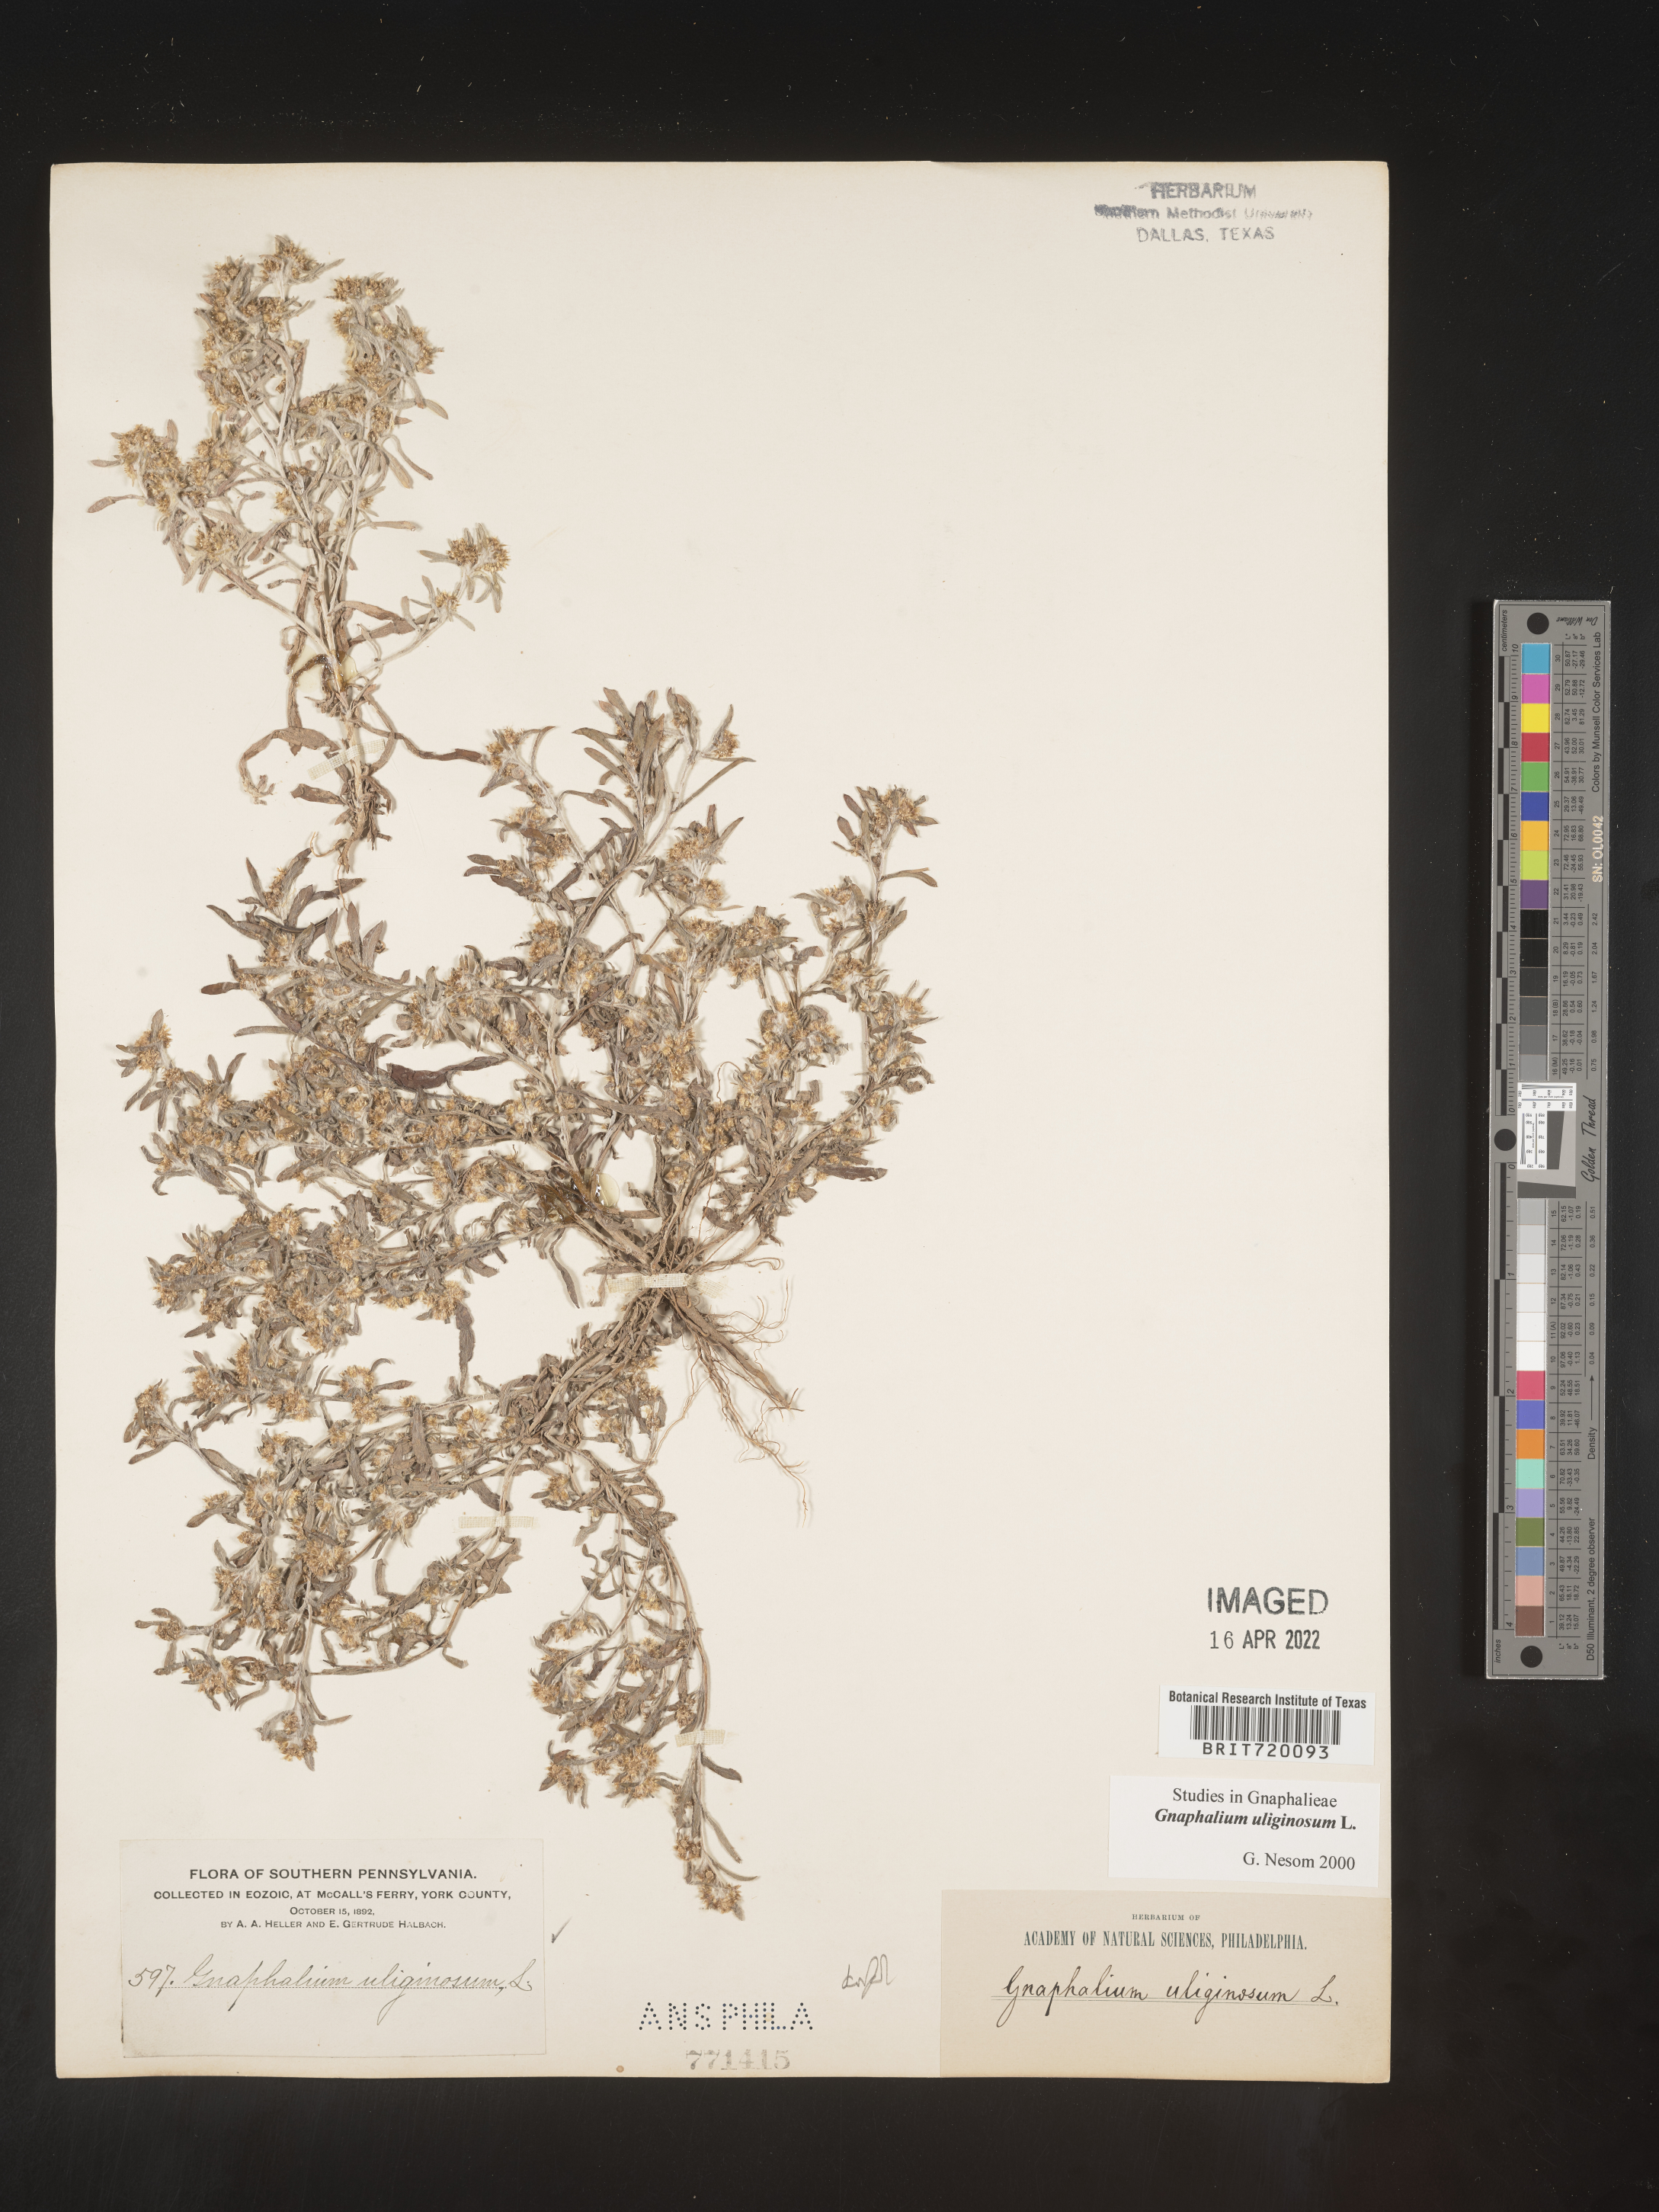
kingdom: Plantae
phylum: Tracheophyta
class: Magnoliopsida
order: Asterales
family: Asteraceae
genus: Gnaphalium
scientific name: Gnaphalium uliginosum
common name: Marsh cudweed
